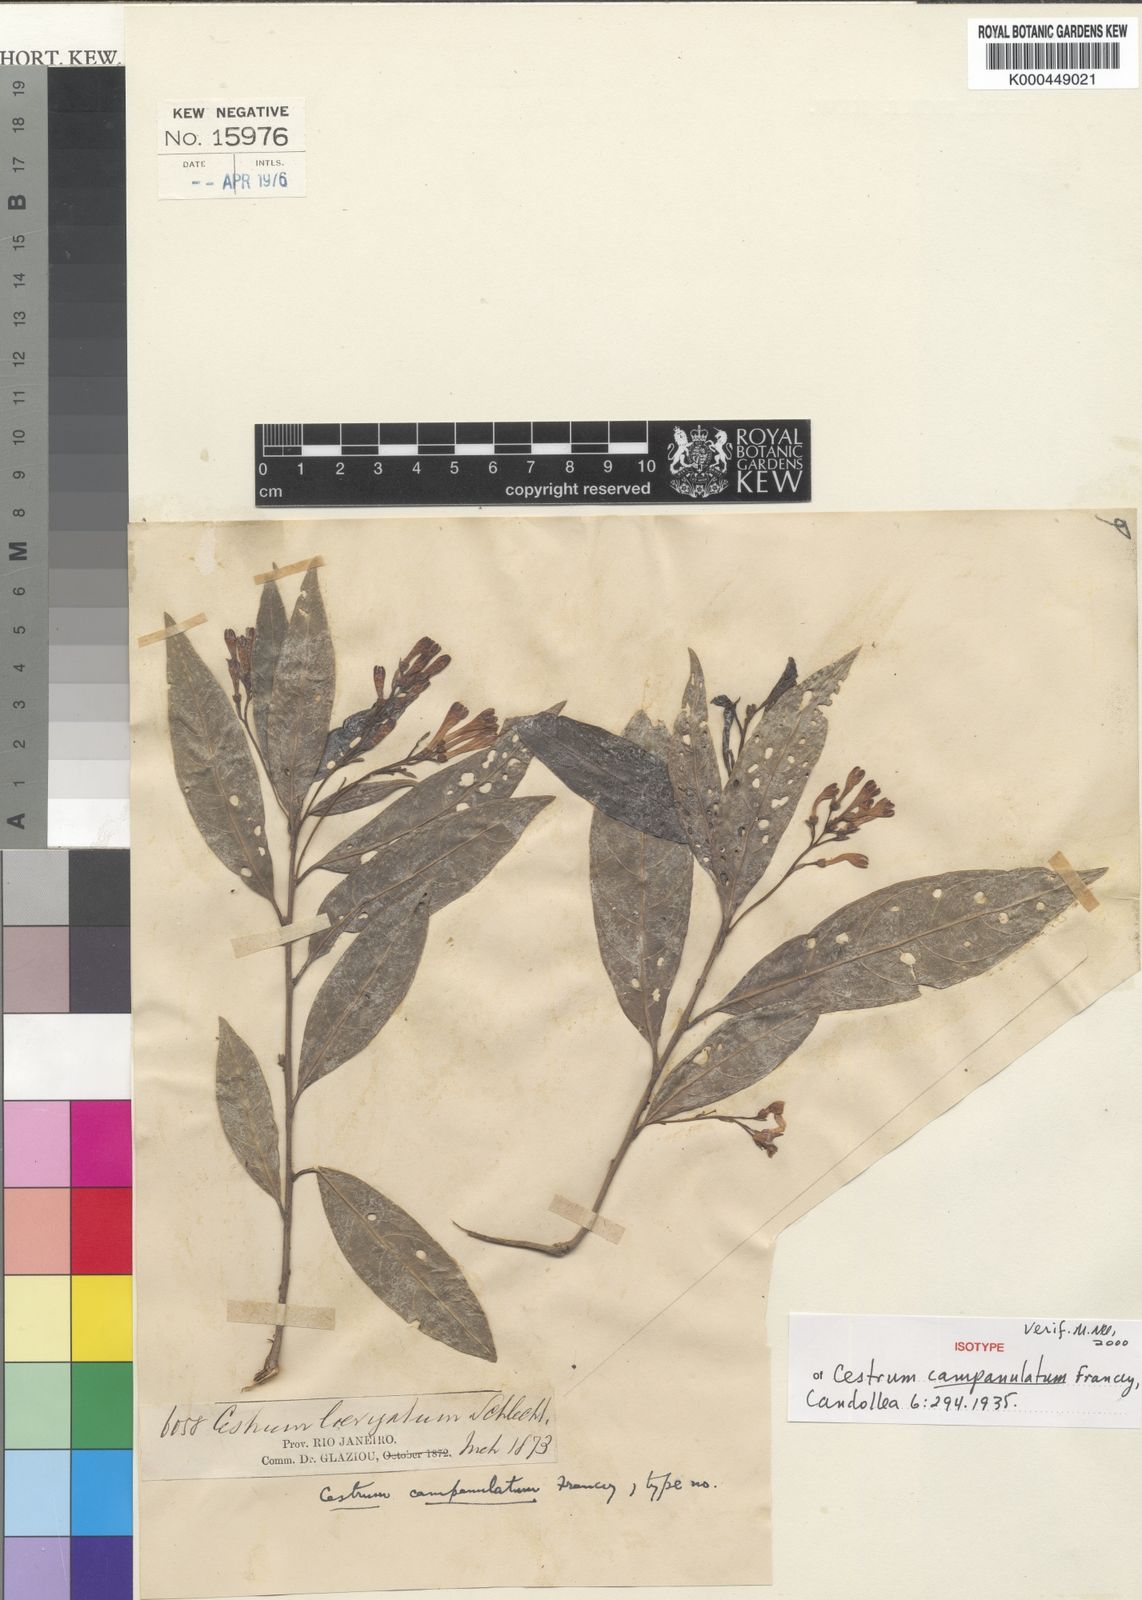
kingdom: Plantae
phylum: Tracheophyta
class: Magnoliopsida
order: Solanales
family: Solanaceae
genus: Cestrum
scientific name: Cestrum subumbellatum
